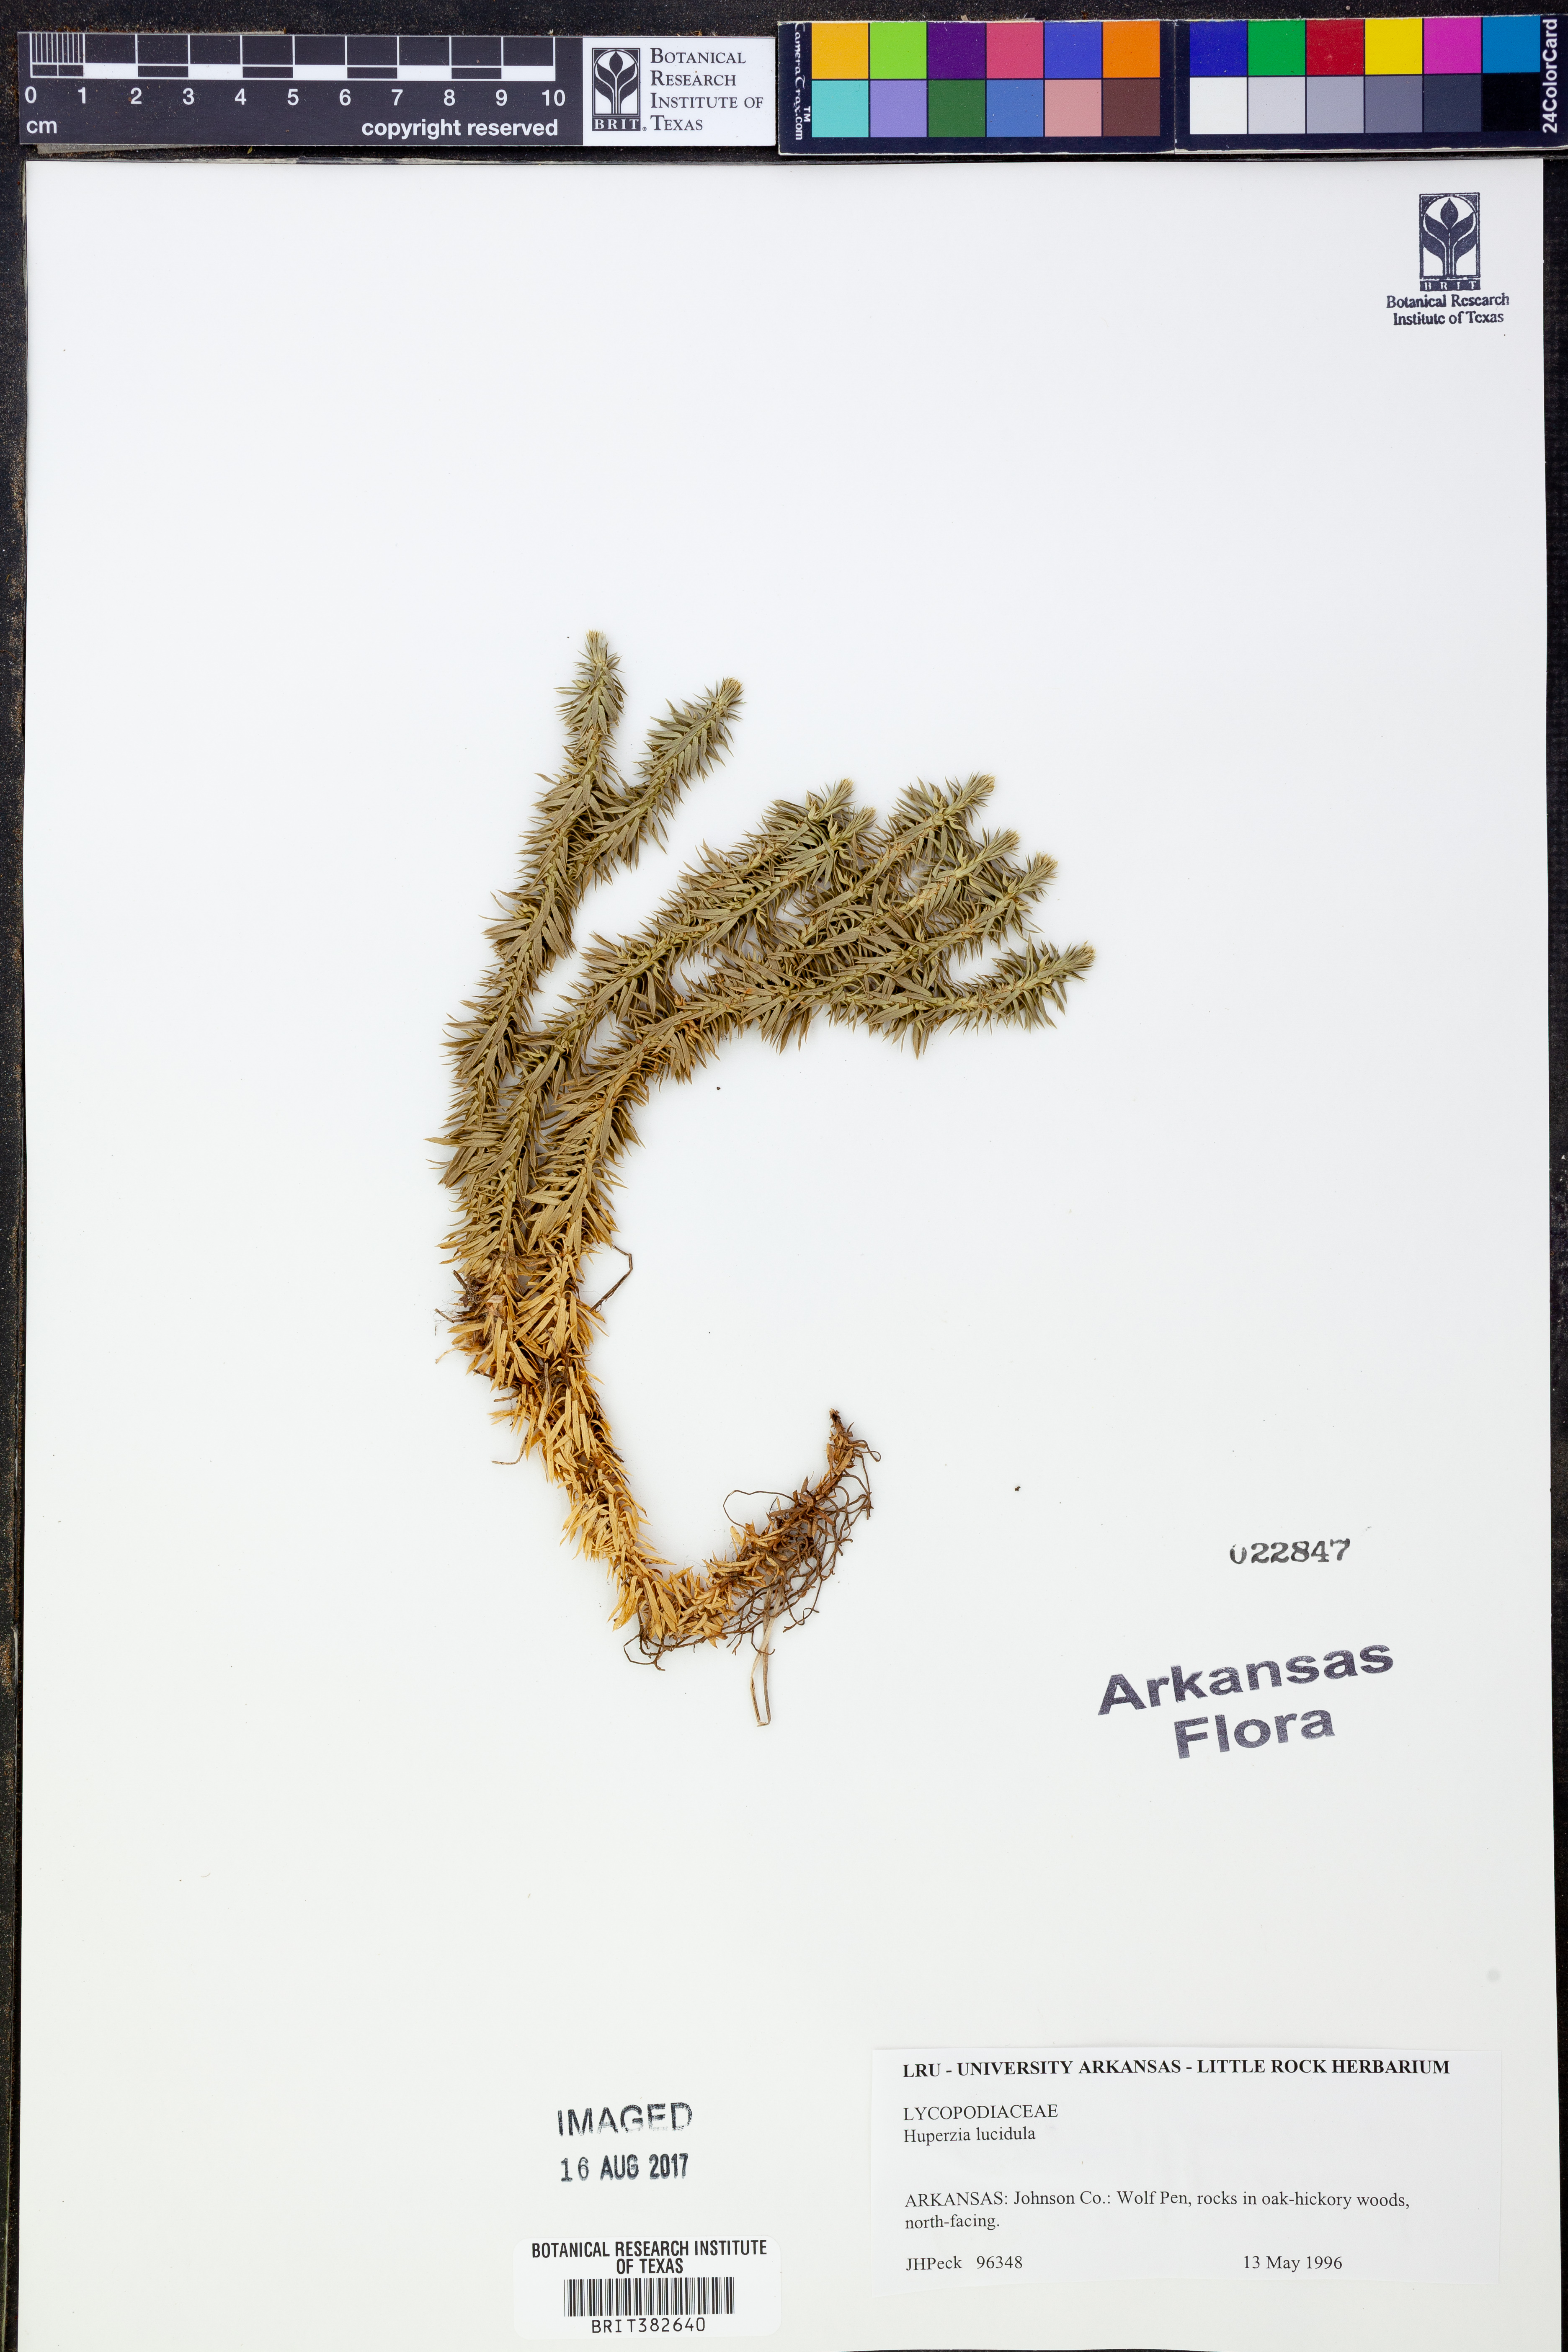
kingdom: Plantae
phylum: Tracheophyta
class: Lycopodiopsida
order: Lycopodiales
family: Lycopodiaceae
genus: Huperzia
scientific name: Huperzia lucidula
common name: Shining clubmoss
